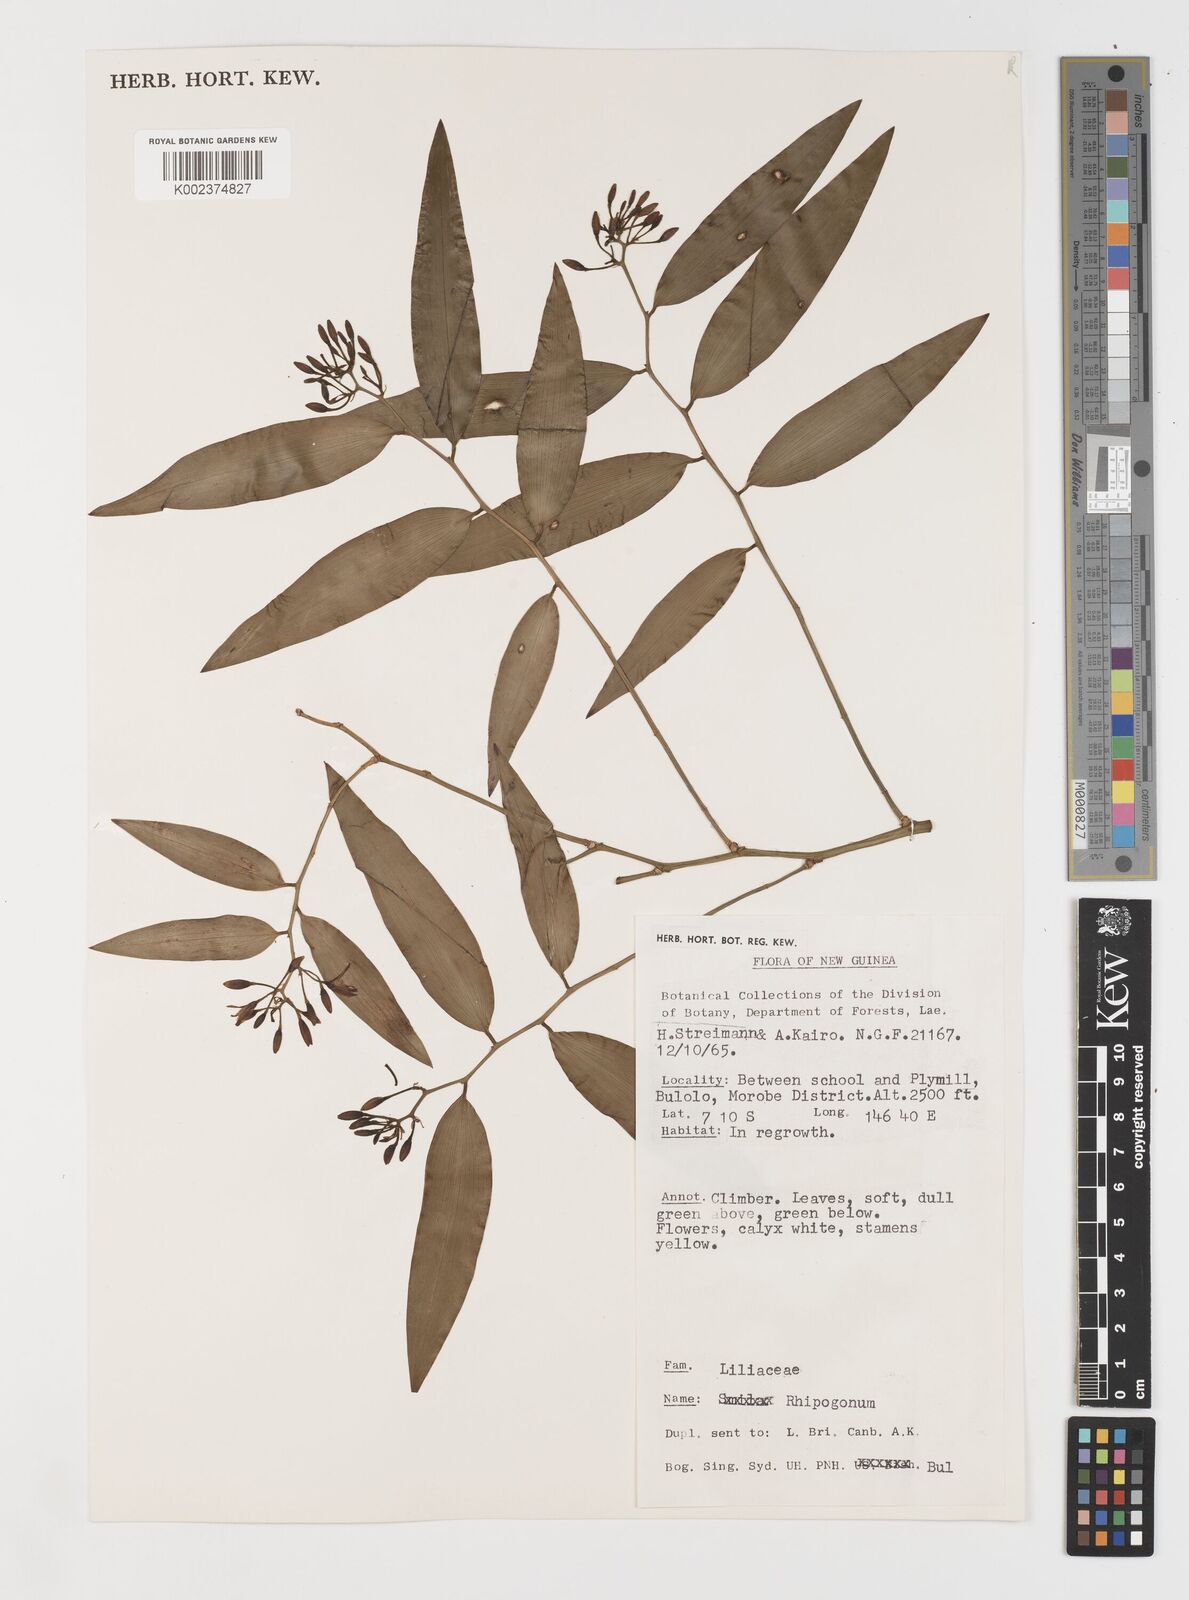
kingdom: Plantae
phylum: Tracheophyta
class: Liliopsida
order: Liliales
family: Ripogonaceae
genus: Ripogonum
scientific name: Ripogonum
